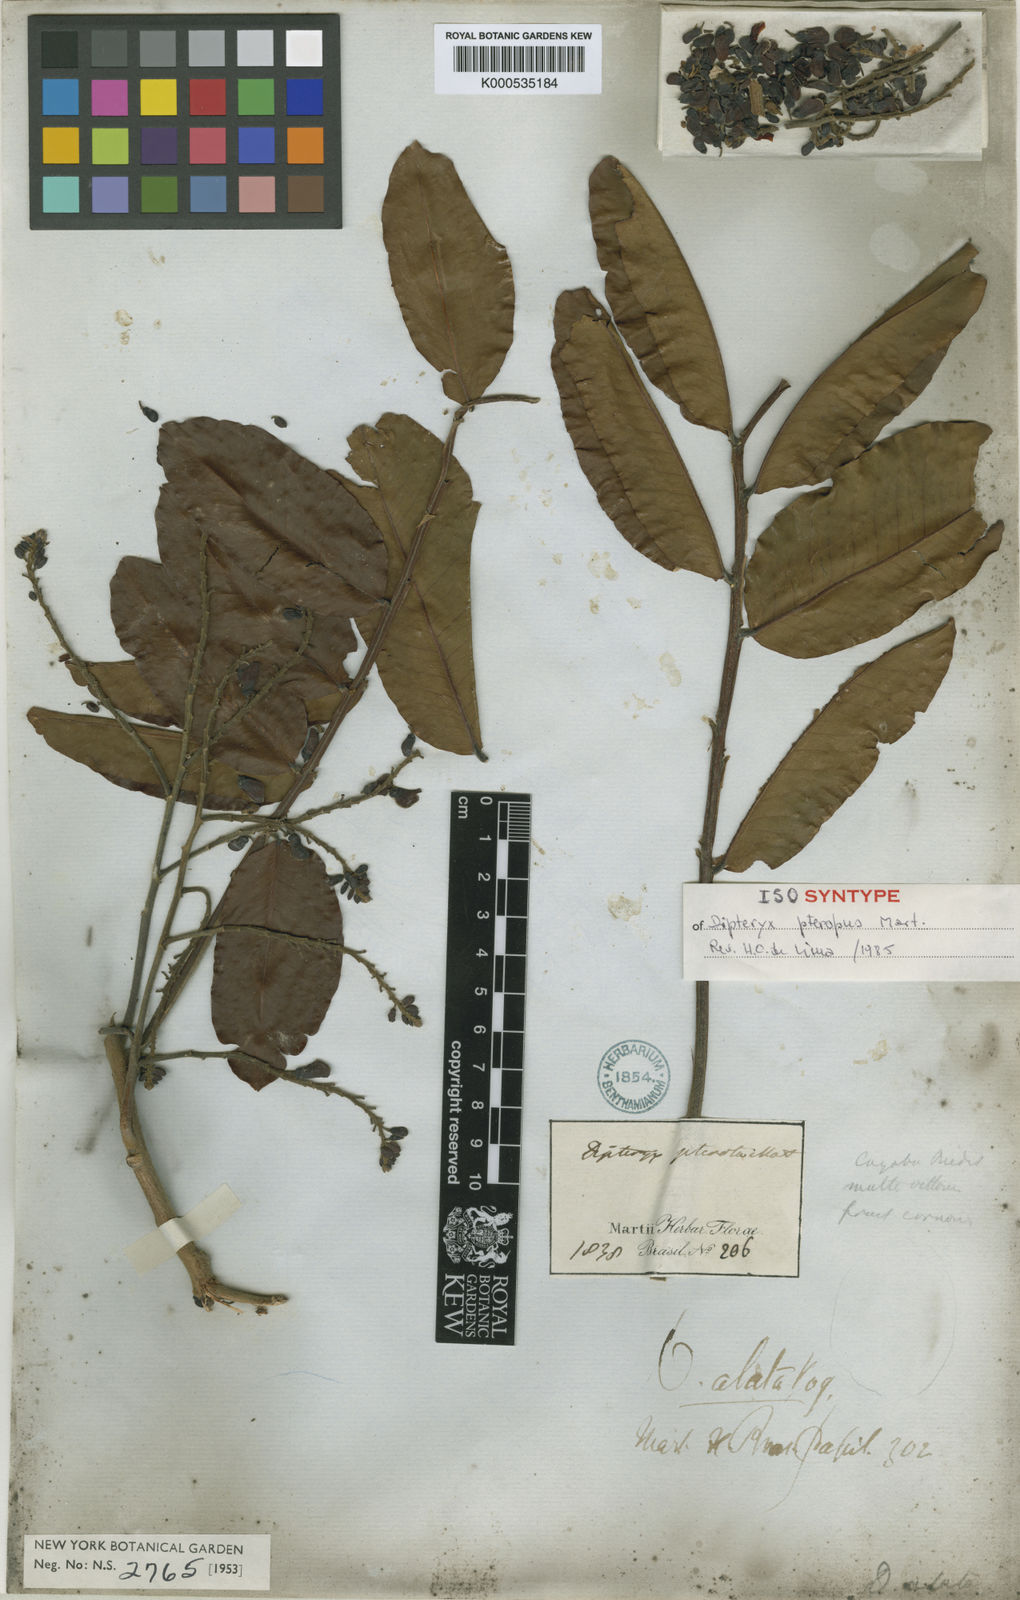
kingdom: Plantae
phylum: Tracheophyta
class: Magnoliopsida
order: Fabales
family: Fabaceae
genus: Dipteryx
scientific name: Dipteryx alata
